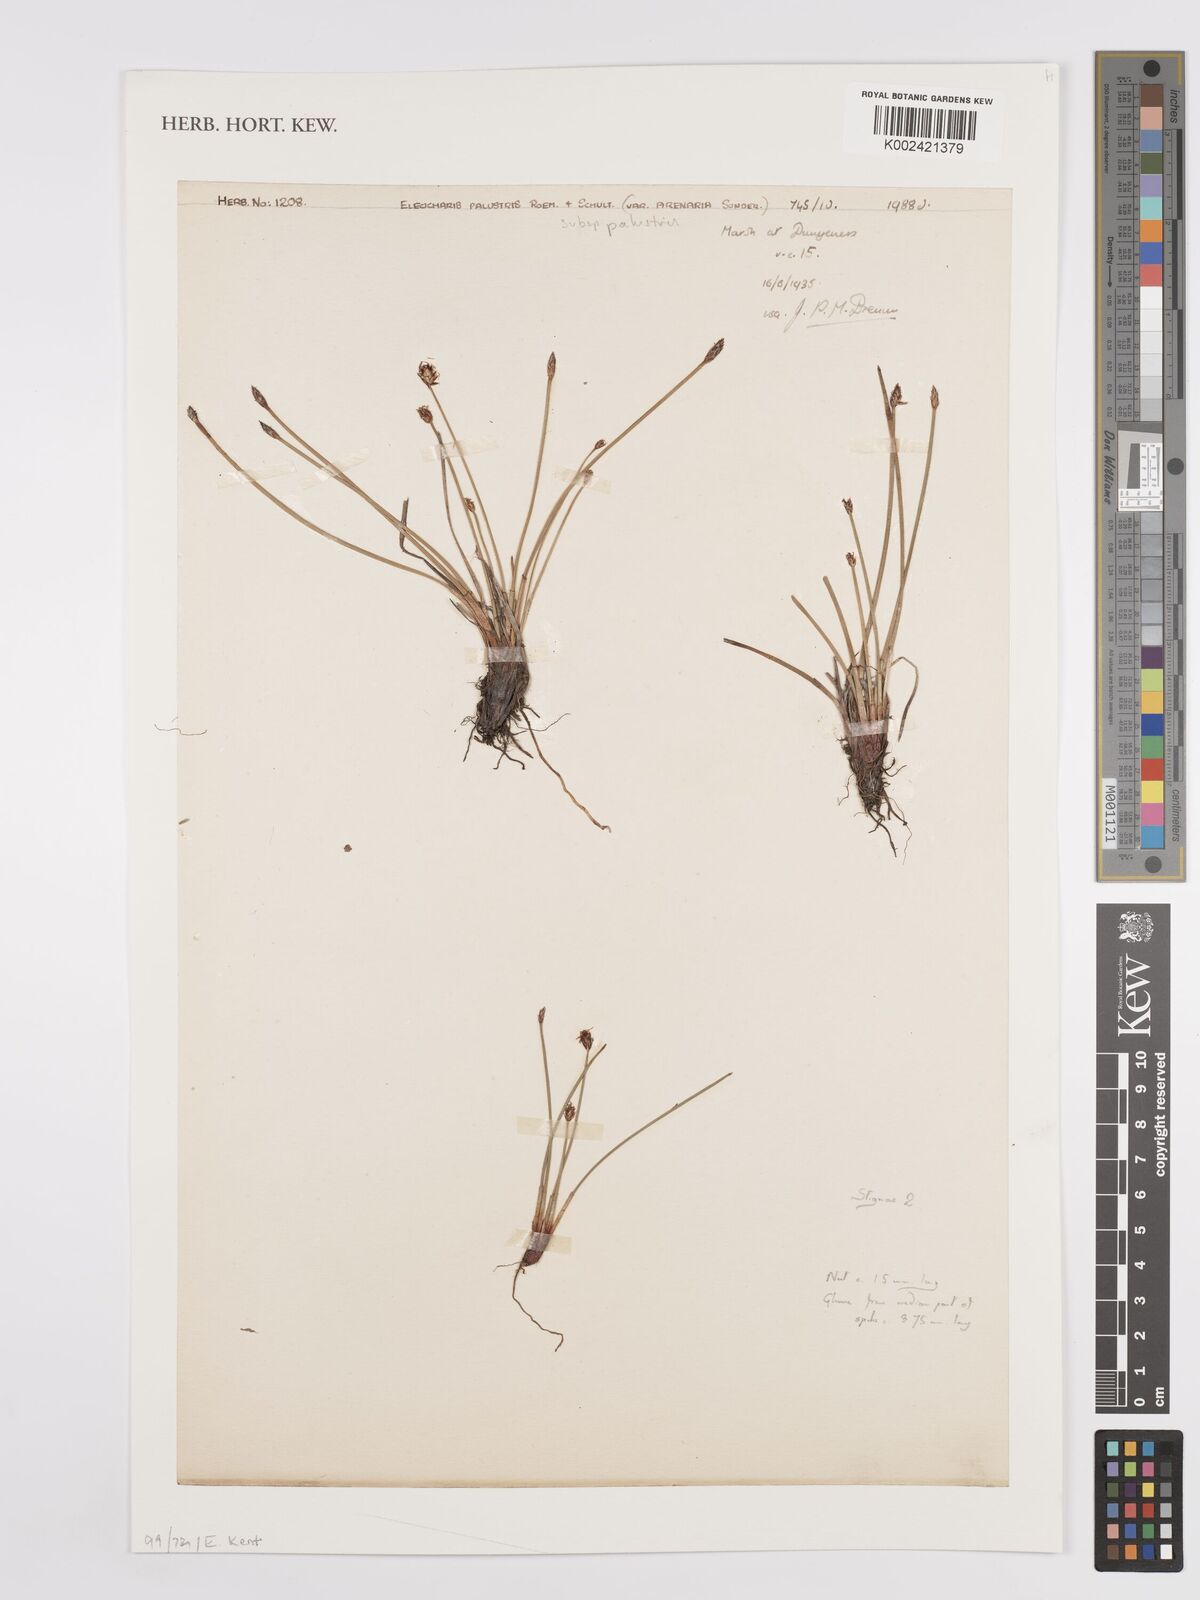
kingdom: Plantae
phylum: Tracheophyta
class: Liliopsida
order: Poales
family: Cyperaceae
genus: Eleocharis
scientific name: Eleocharis uniglumis
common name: Slender spike-rush
